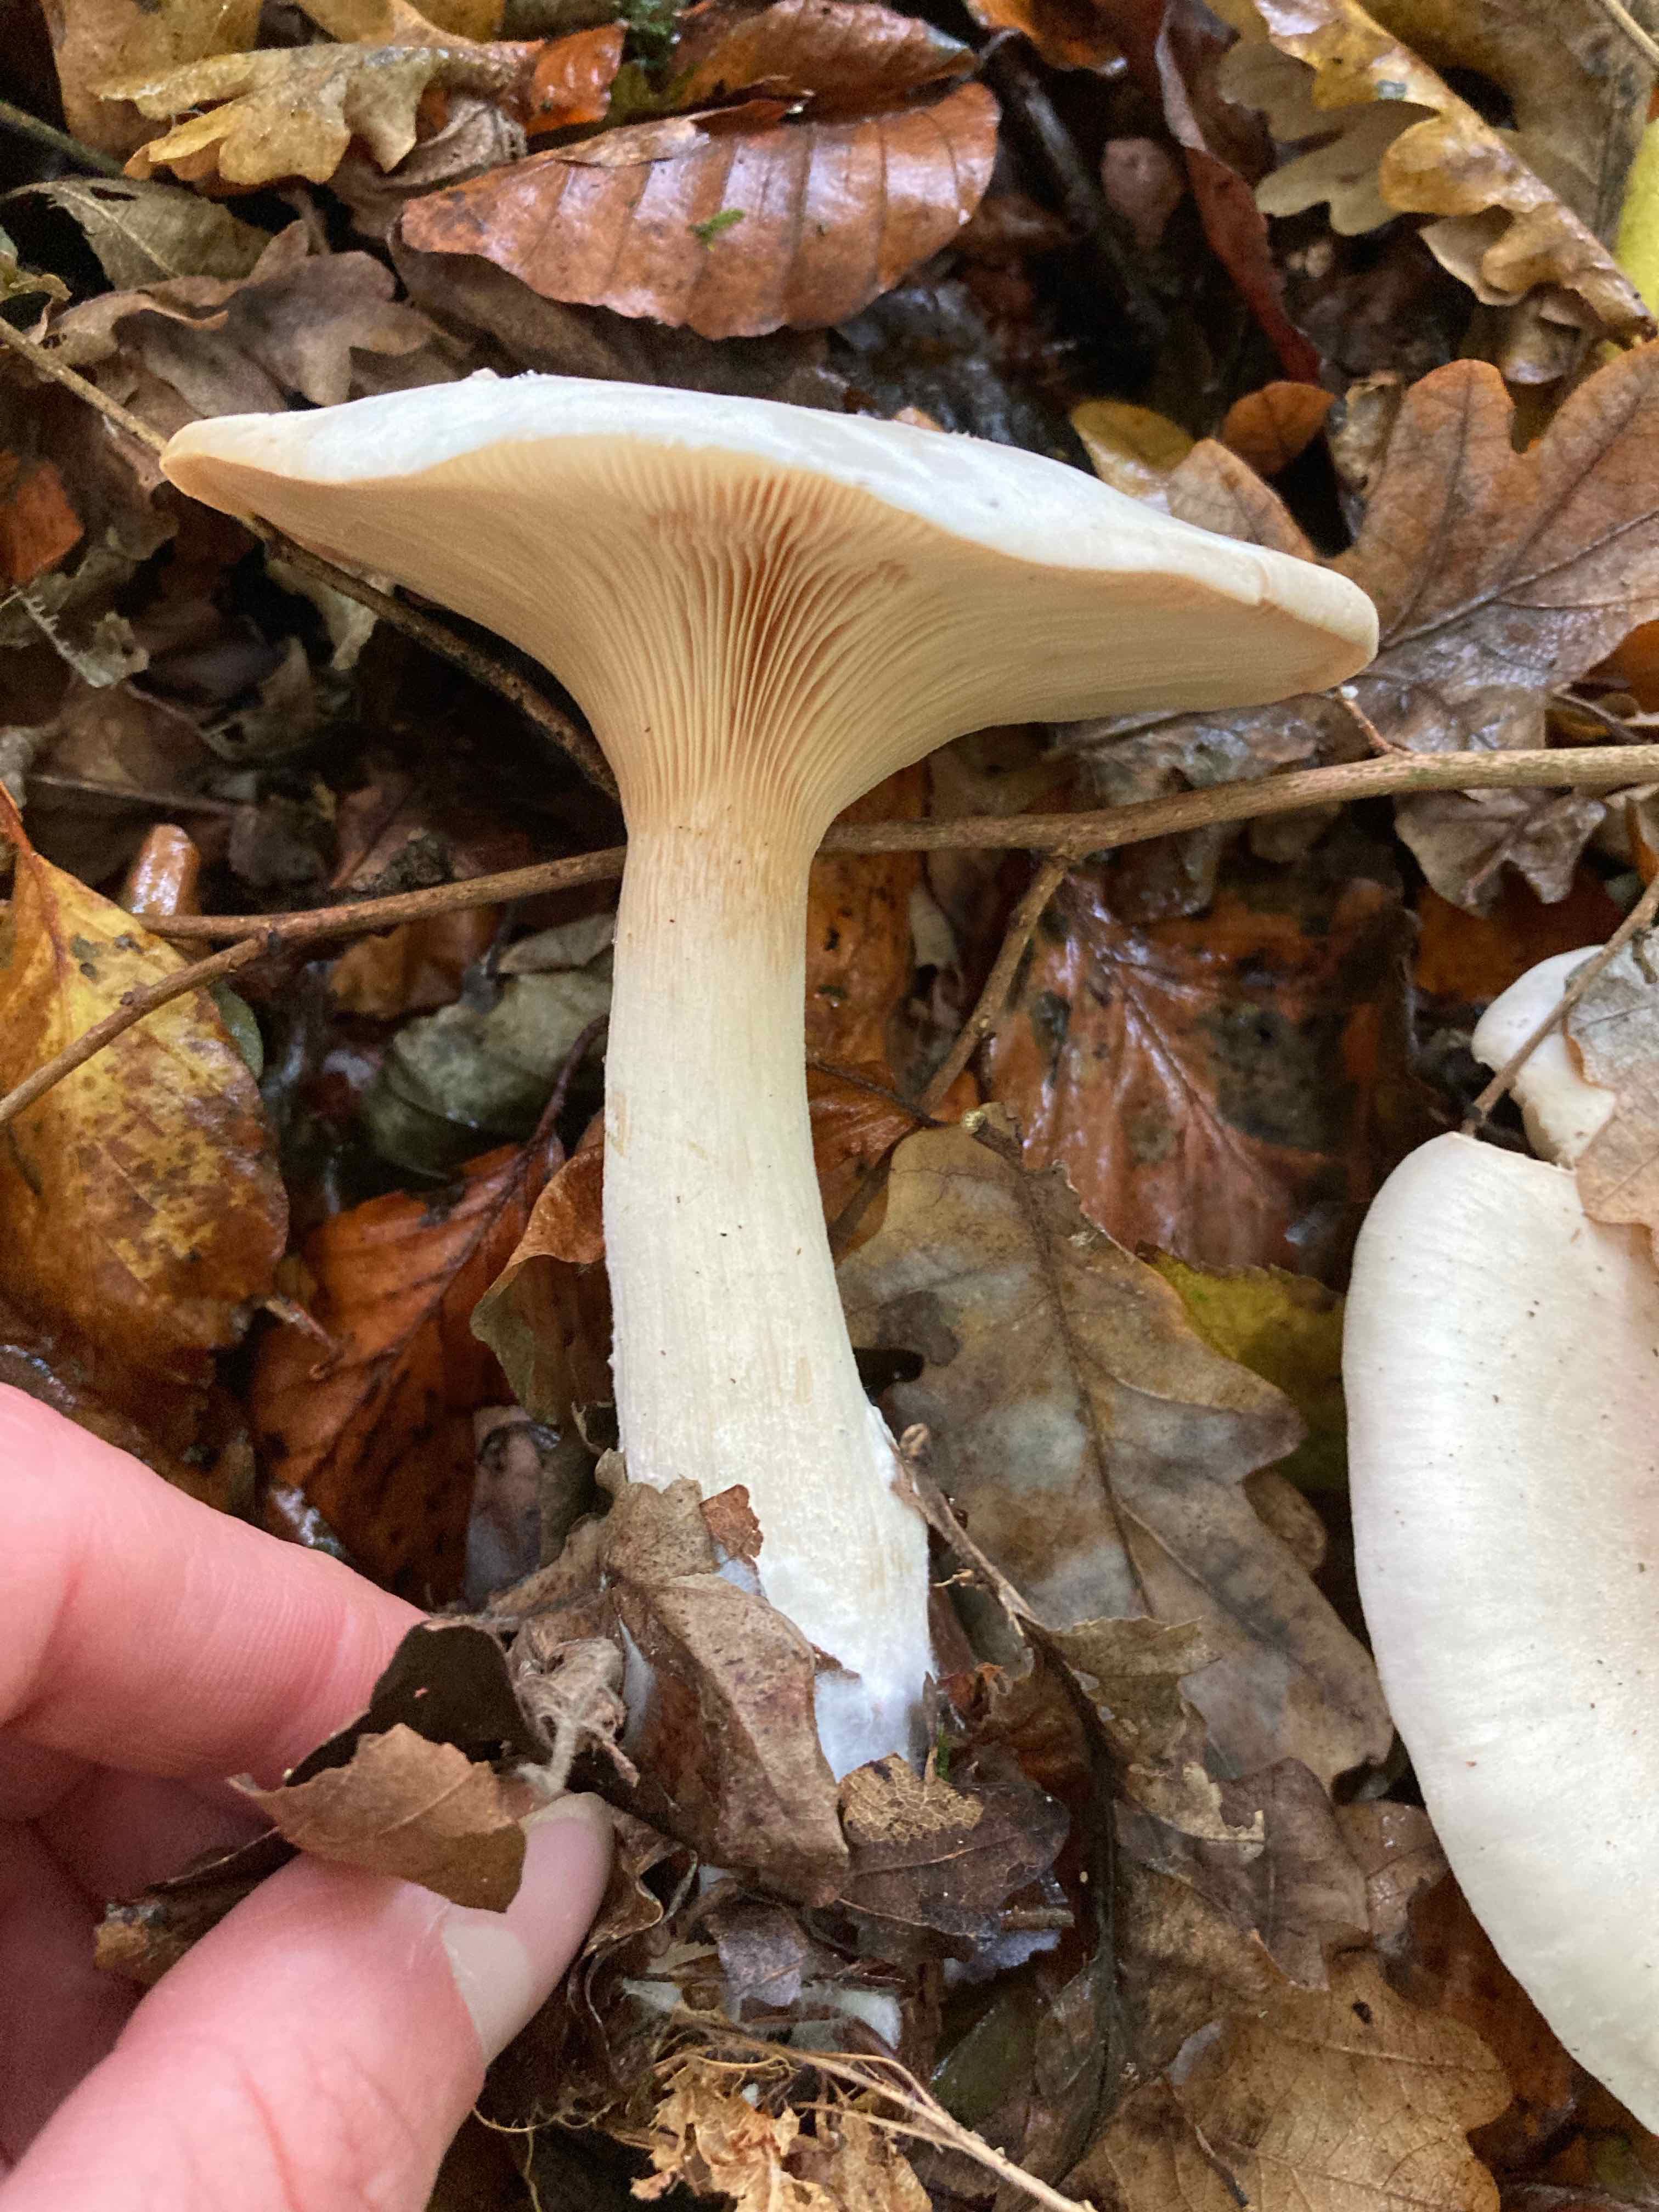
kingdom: Fungi
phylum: Basidiomycota
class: Agaricomycetes
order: Agaricales
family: Tricholomataceae
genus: Clitocybe
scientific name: Clitocybe nebularis
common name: tåge-tragthat
